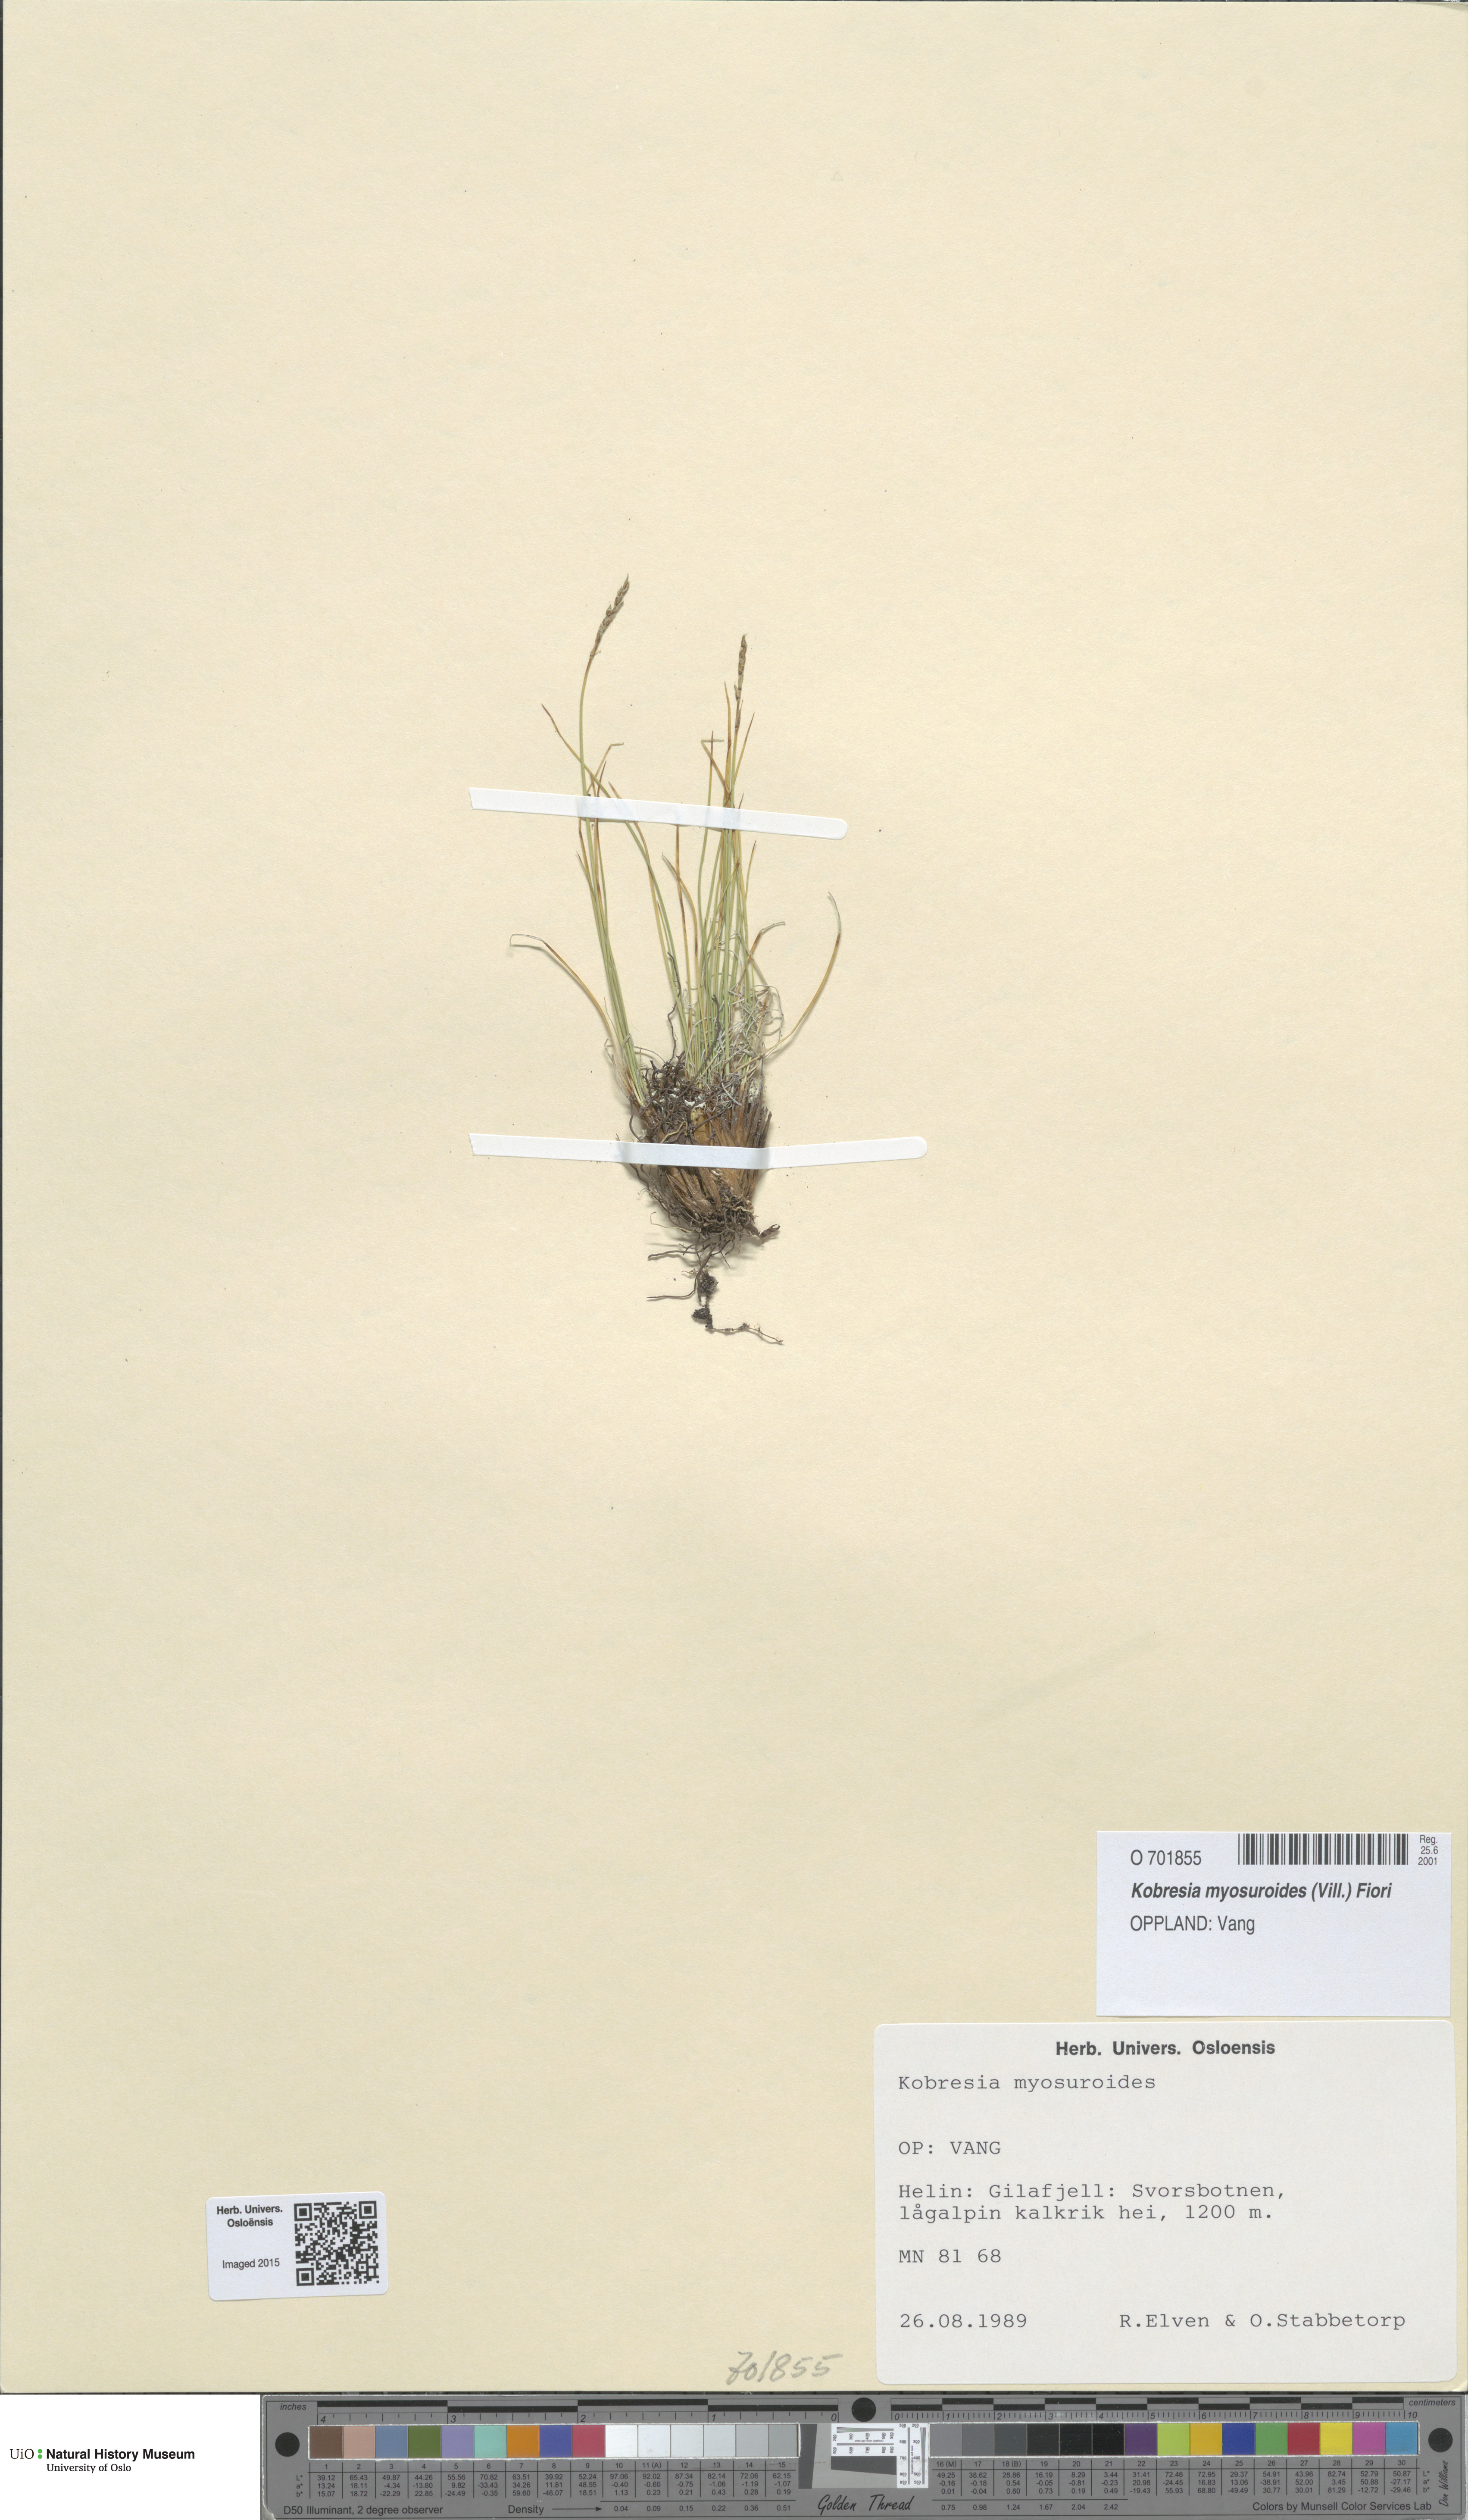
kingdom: Plantae
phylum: Tracheophyta
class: Liliopsida
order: Poales
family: Cyperaceae
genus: Carex
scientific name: Carex myosuroides
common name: Bellard's bog sedge
